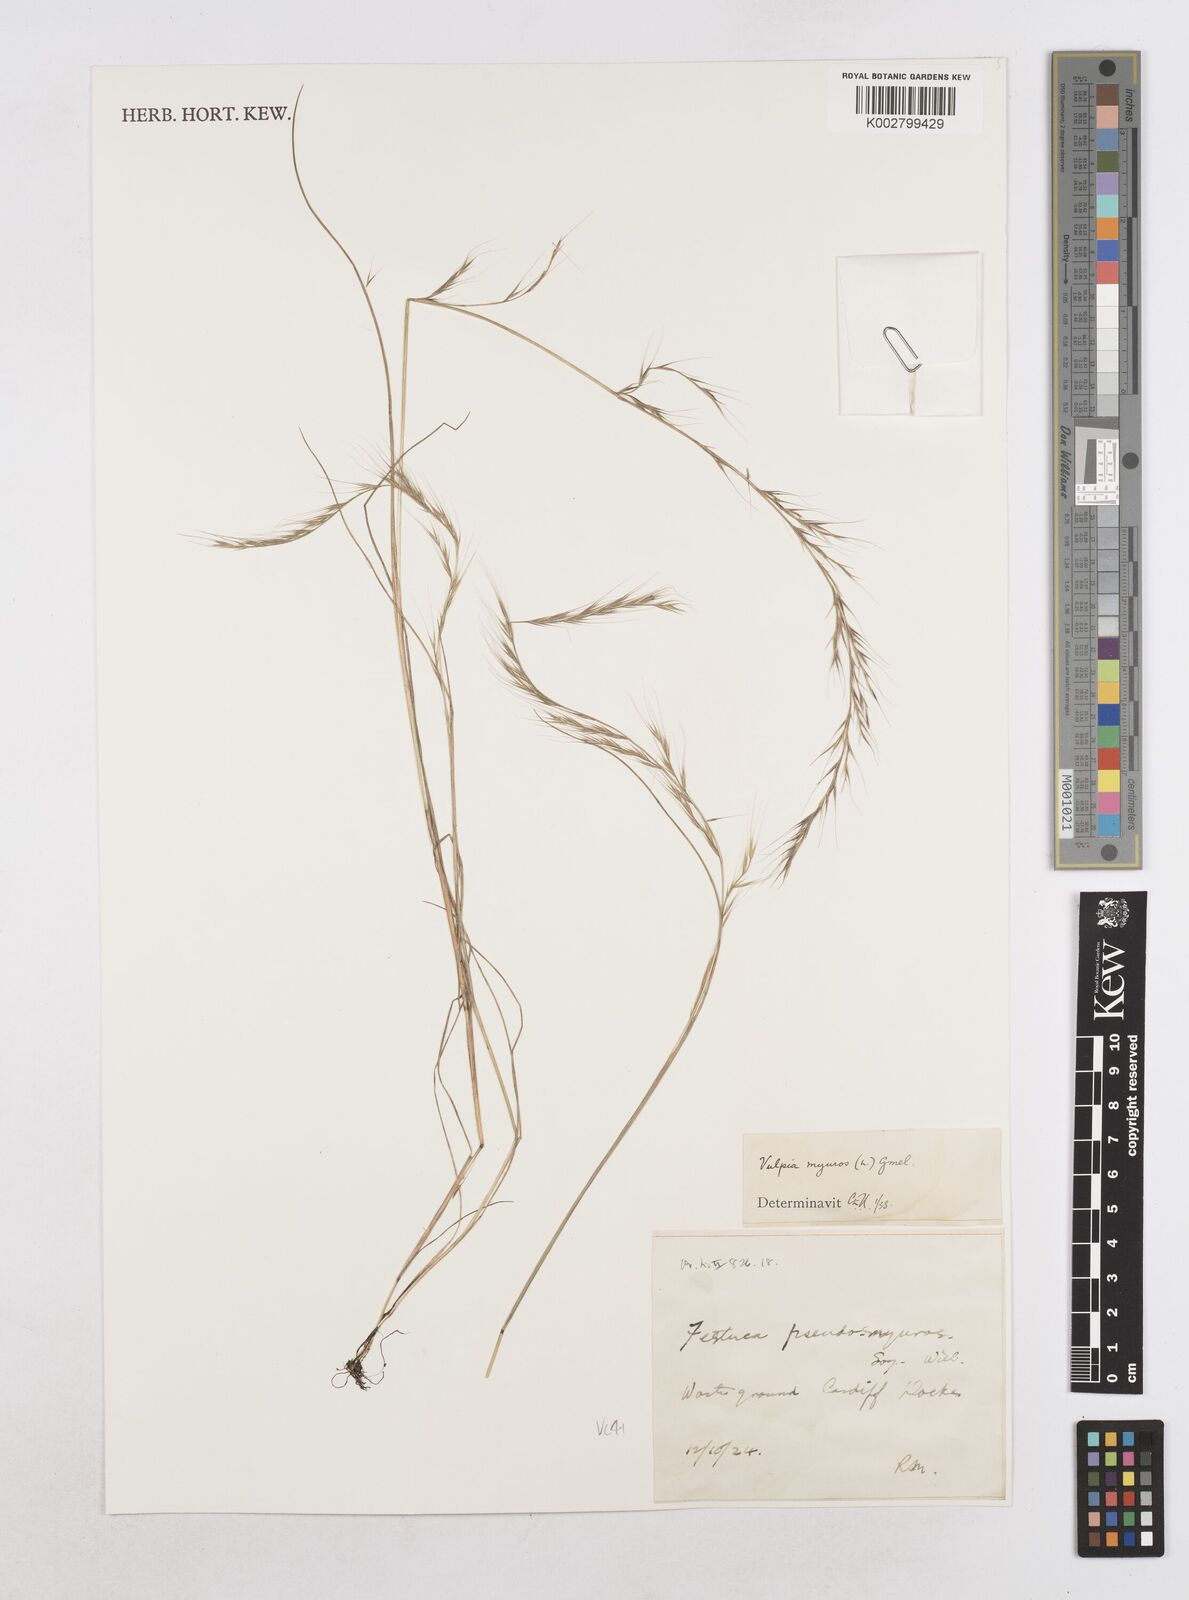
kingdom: Plantae
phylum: Tracheophyta
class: Liliopsida
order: Poales
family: Poaceae
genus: Festuca
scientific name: Festuca myuros
